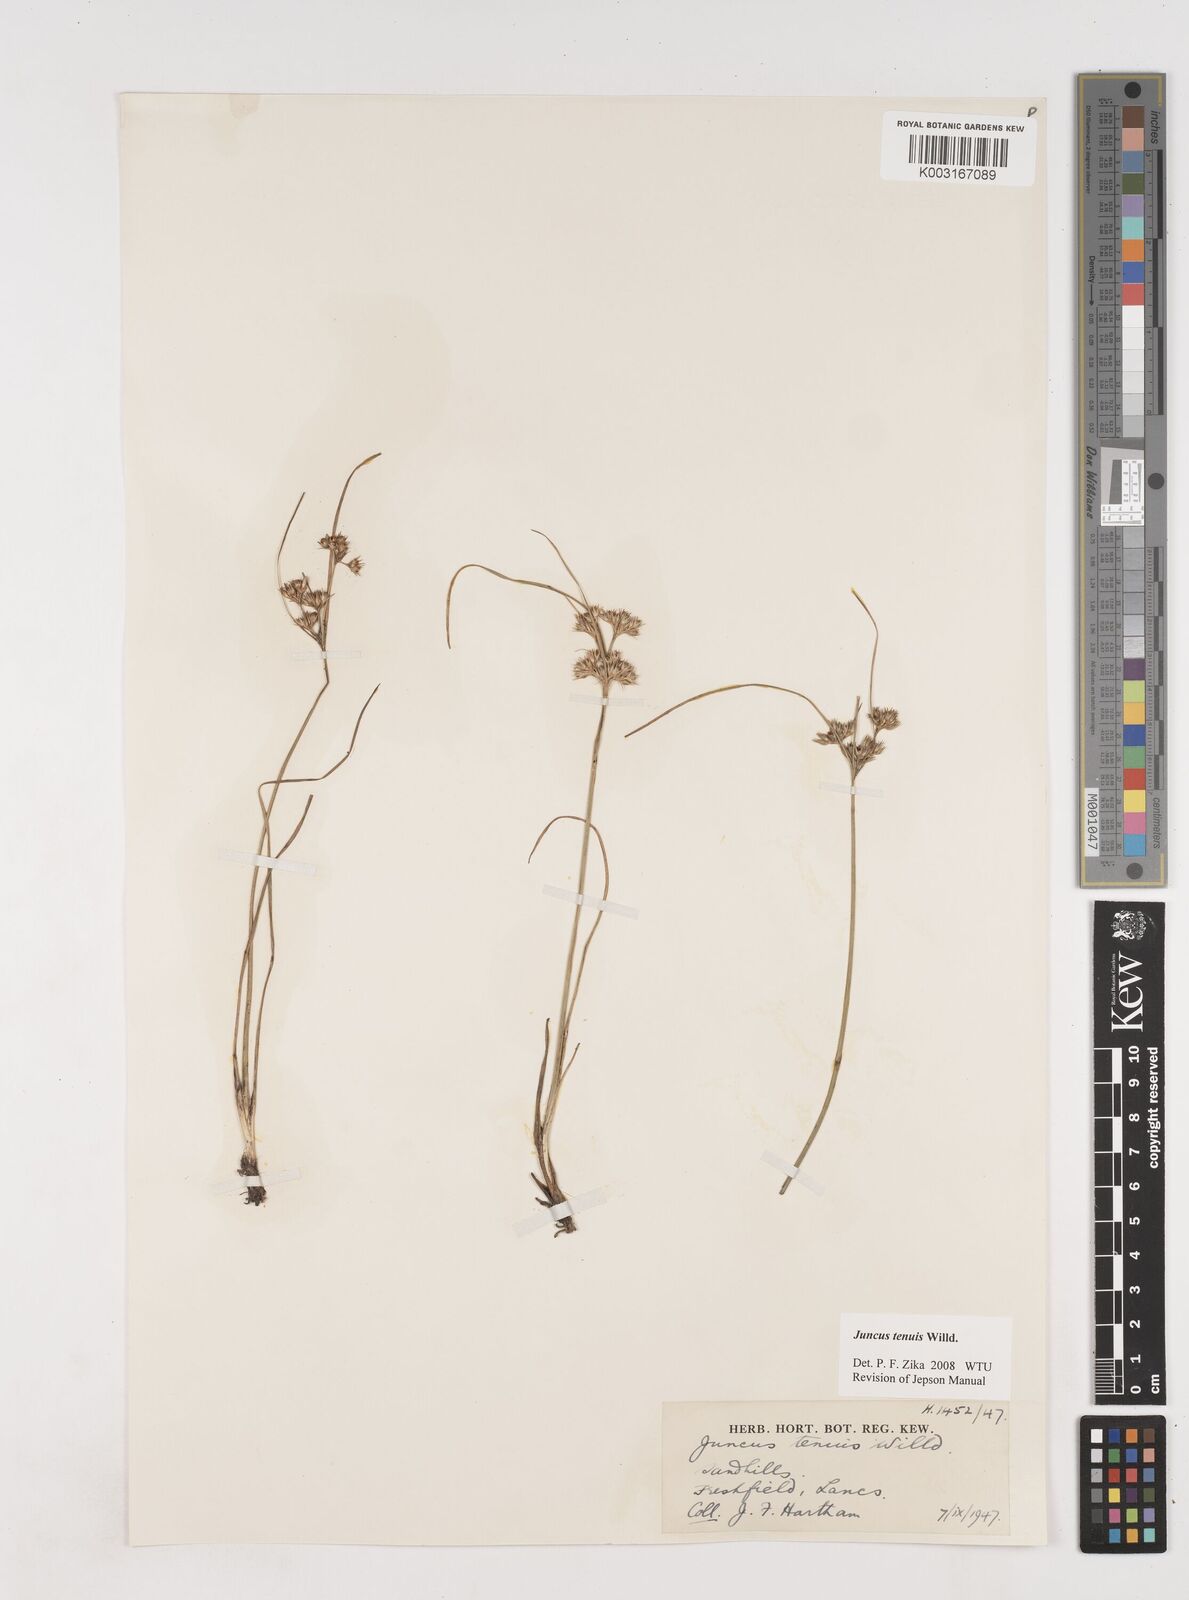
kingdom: Plantae
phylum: Tracheophyta
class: Liliopsida
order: Poales
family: Juncaceae
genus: Juncus
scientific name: Juncus tenuis
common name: Slender rush
